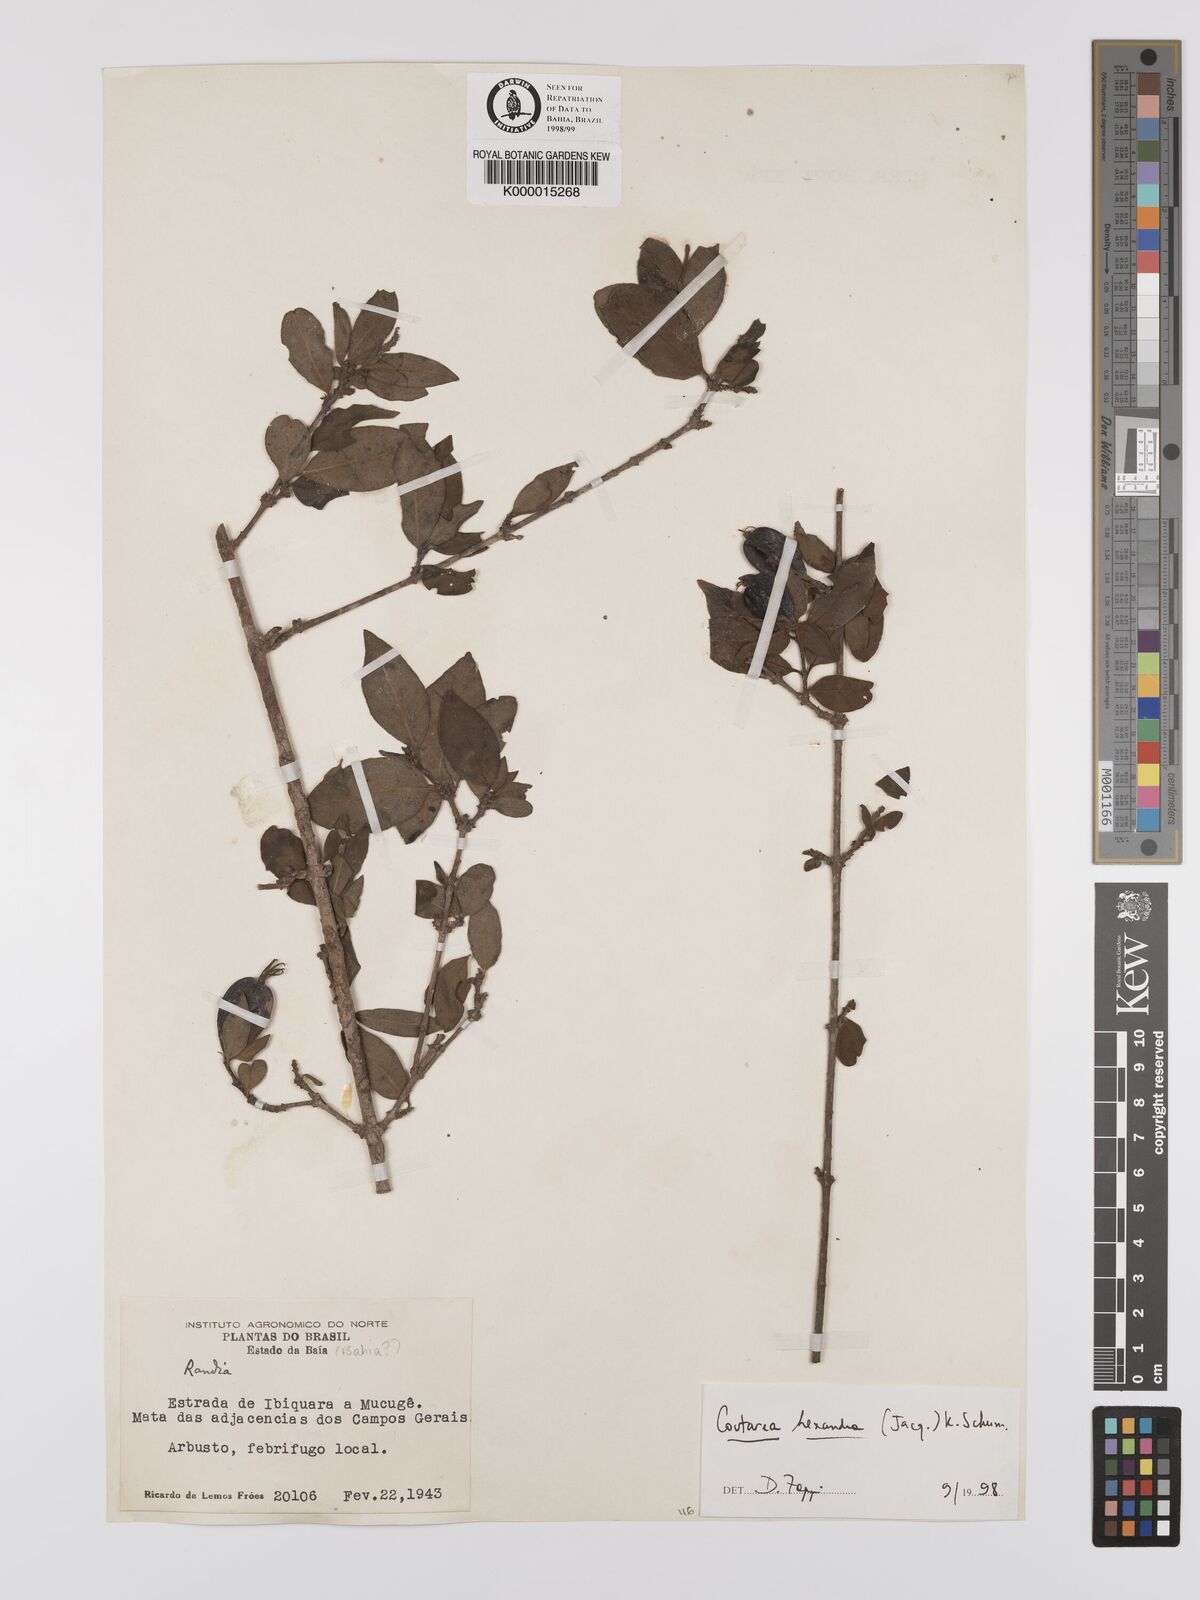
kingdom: Plantae
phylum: Tracheophyta
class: Magnoliopsida
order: Gentianales
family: Rubiaceae
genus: Coutarea
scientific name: Coutarea hexandra
